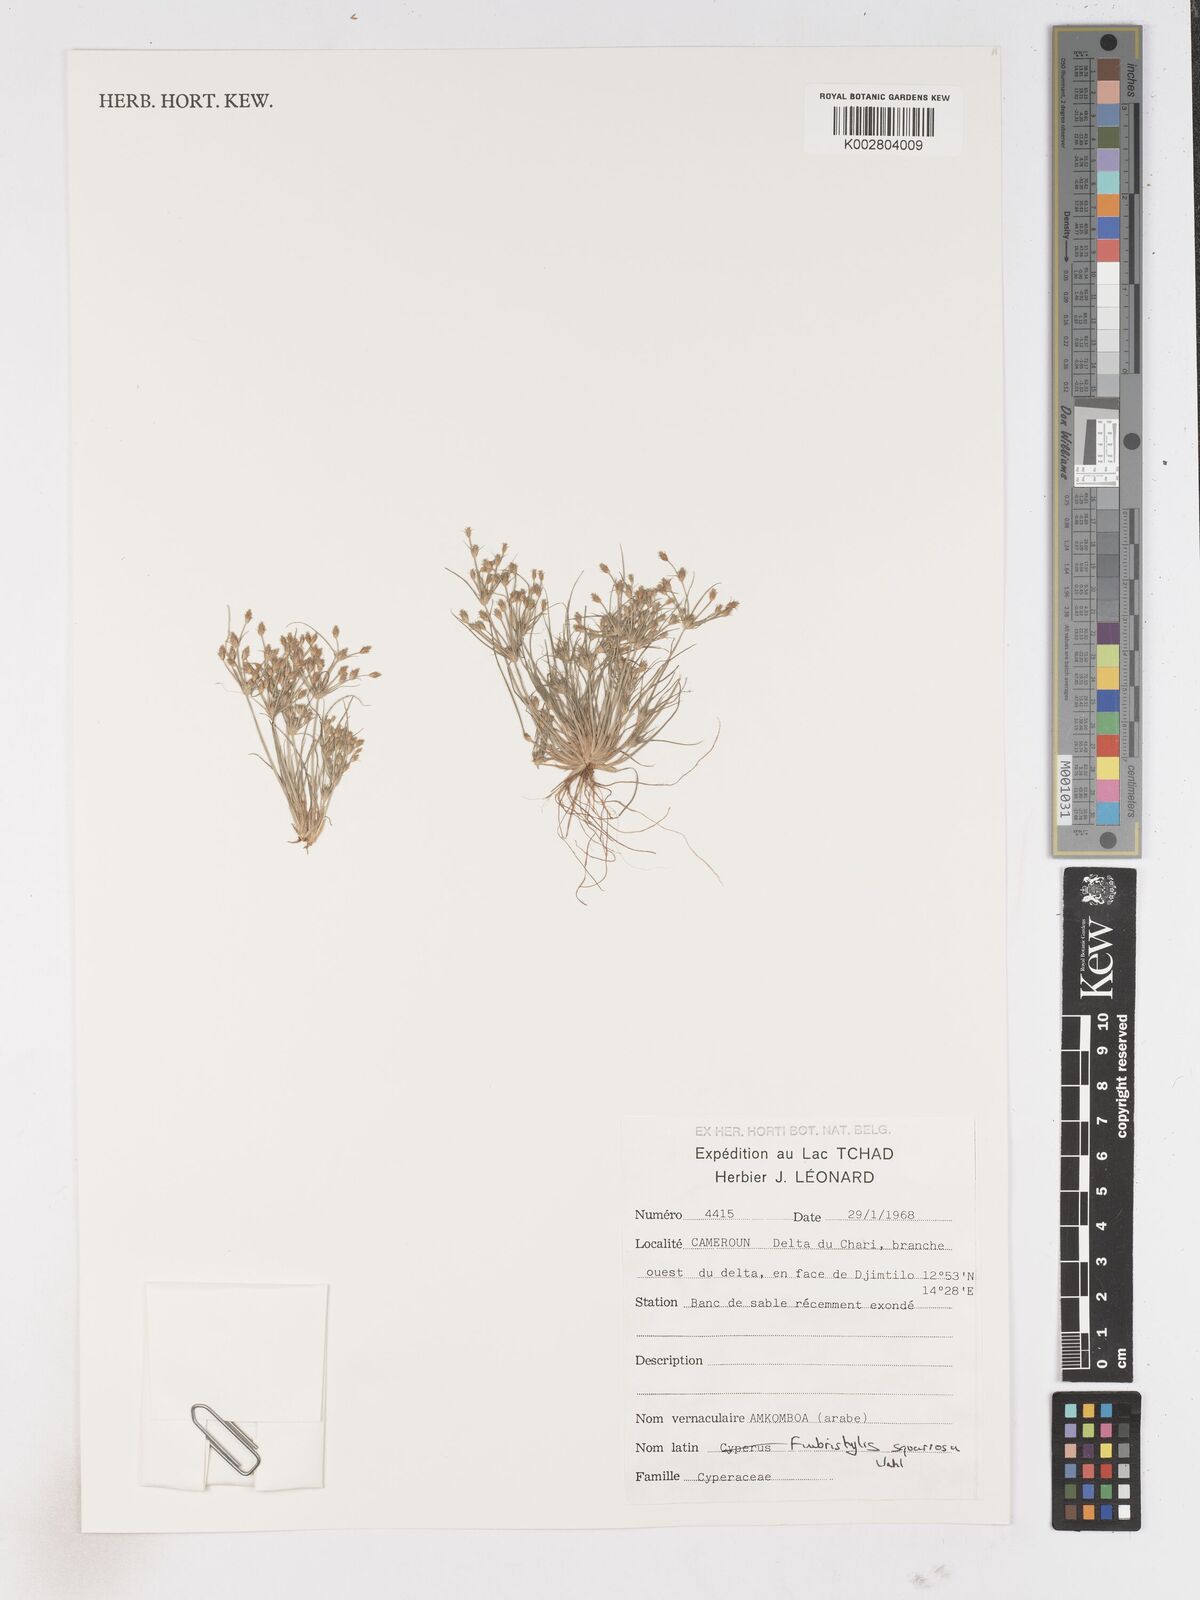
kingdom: Plantae
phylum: Tracheophyta
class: Liliopsida
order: Poales
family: Cyperaceae
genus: Fimbristylis
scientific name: Fimbristylis squarrosa
